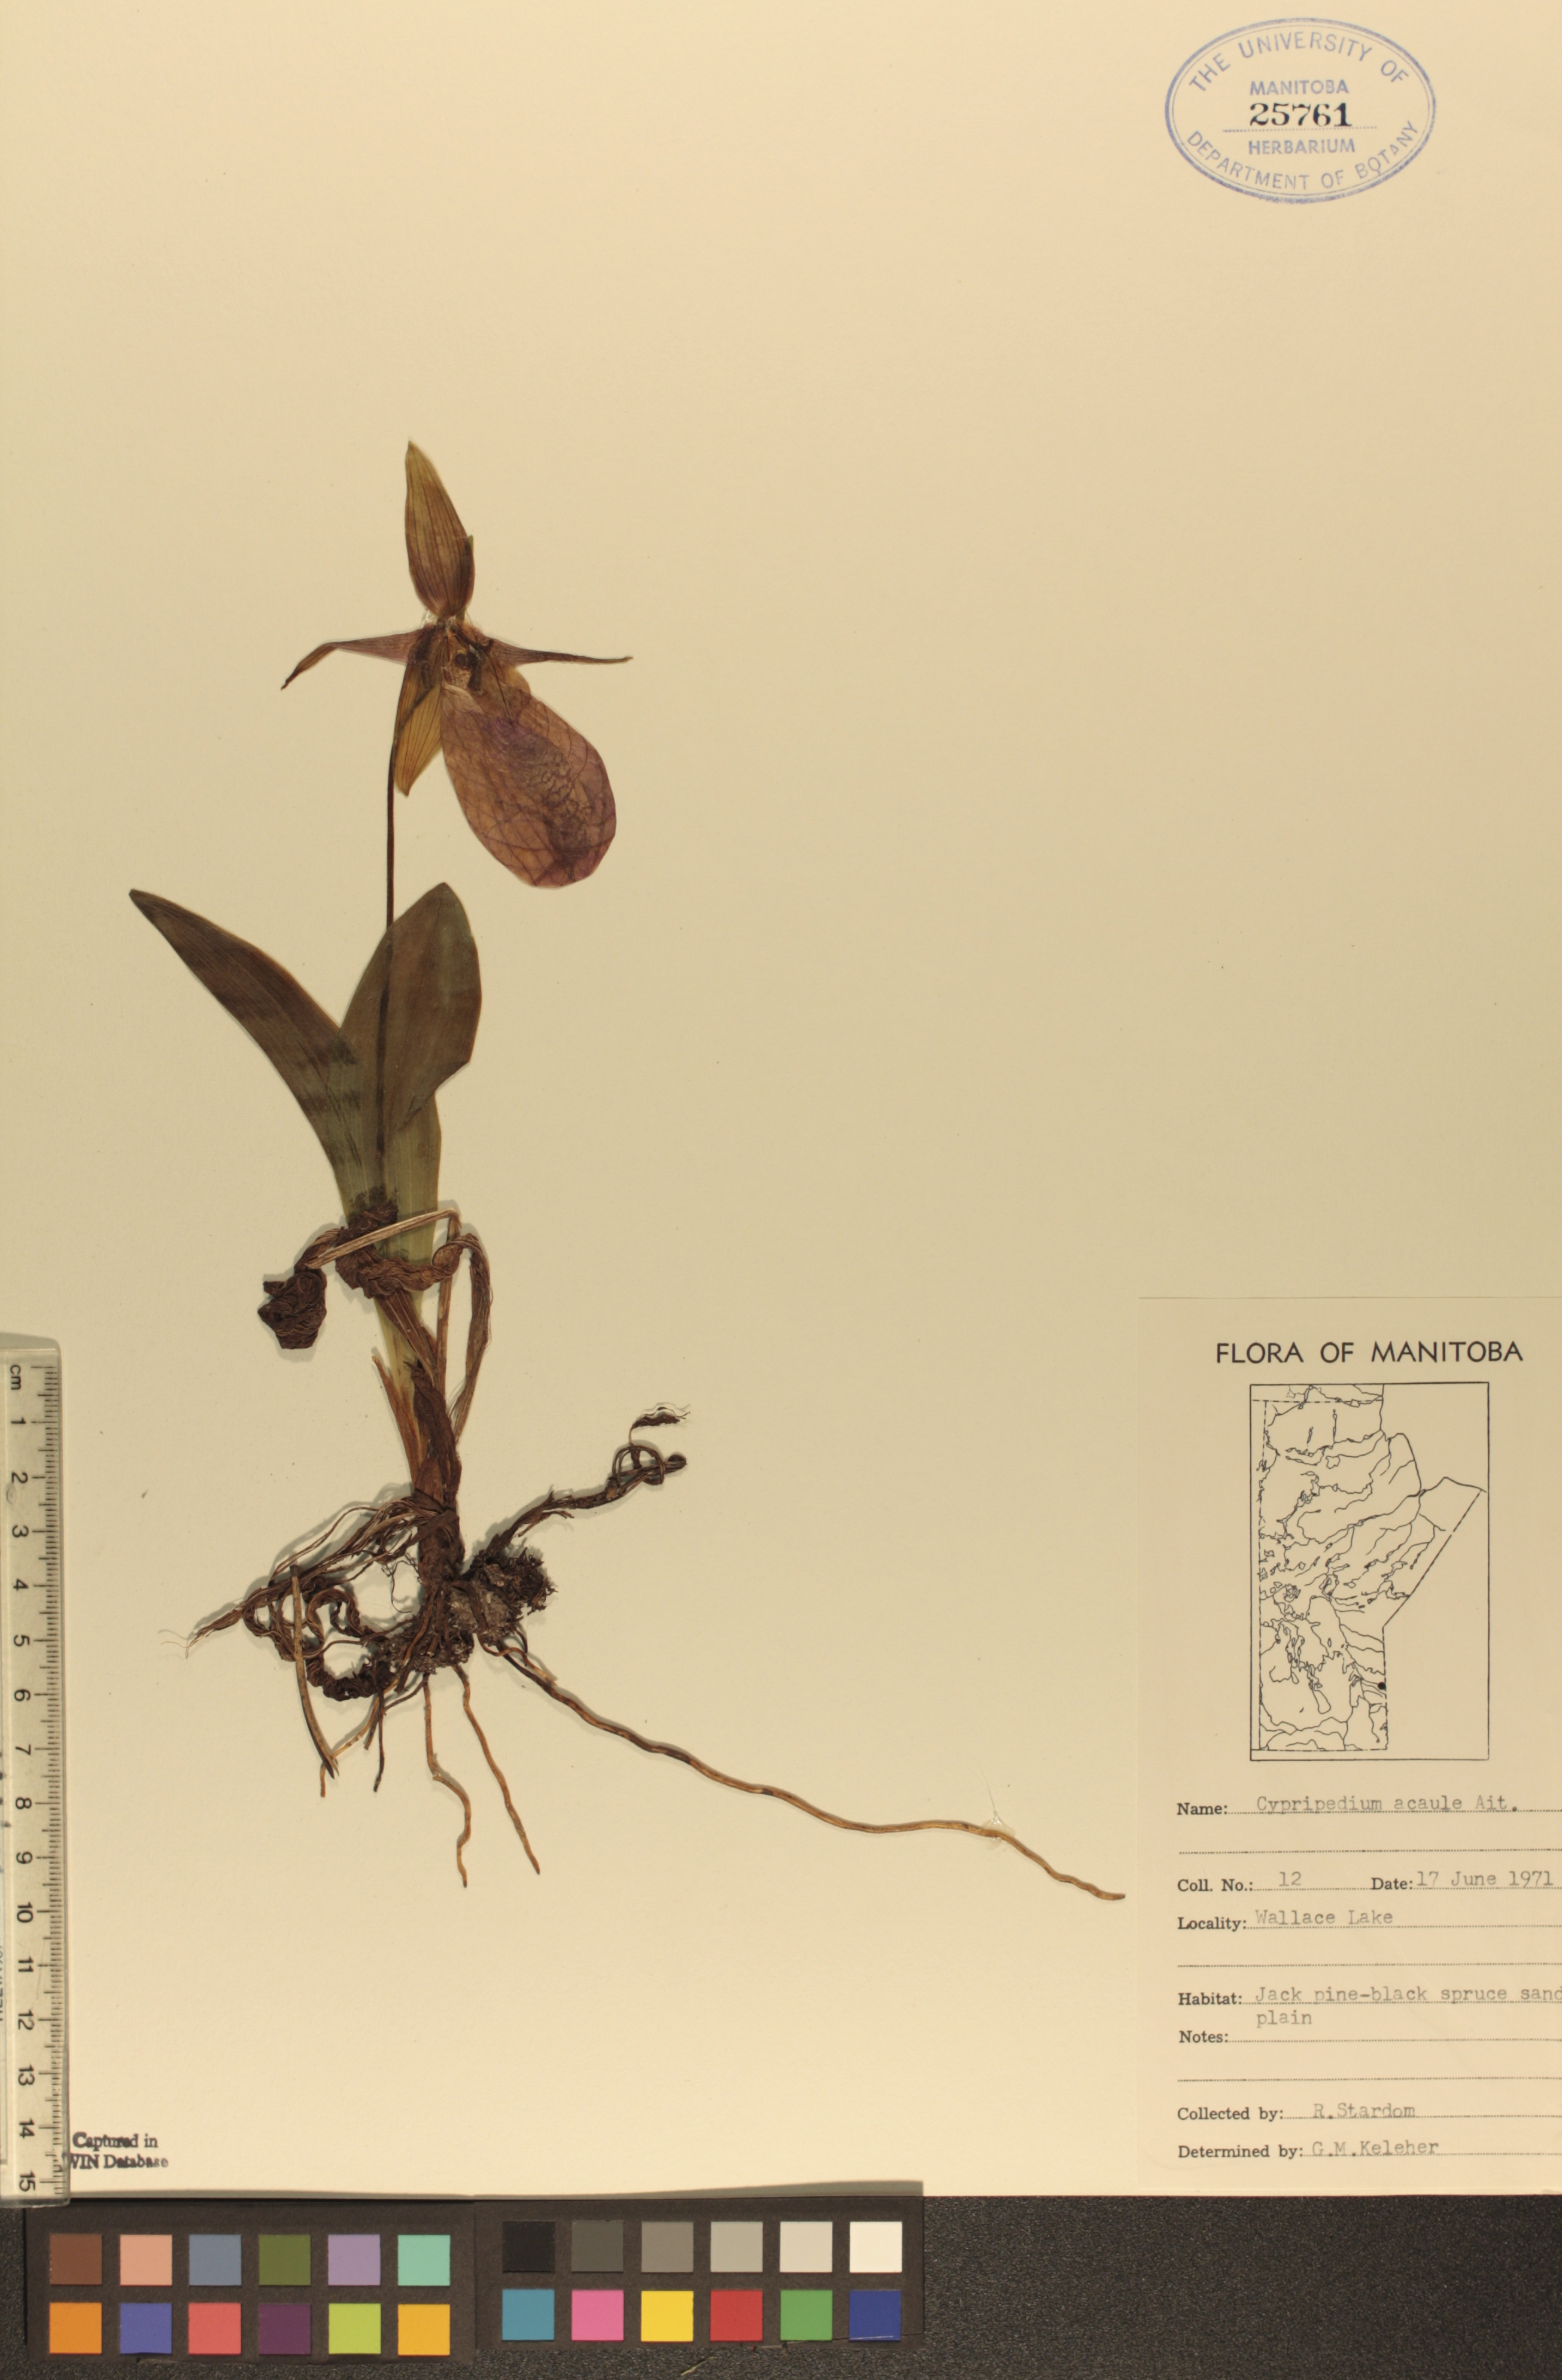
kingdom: Plantae
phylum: Tracheophyta
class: Liliopsida
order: Asparagales
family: Orchidaceae
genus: Cypripedium
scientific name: Cypripedium acaule
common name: Pink lady's-slipper
